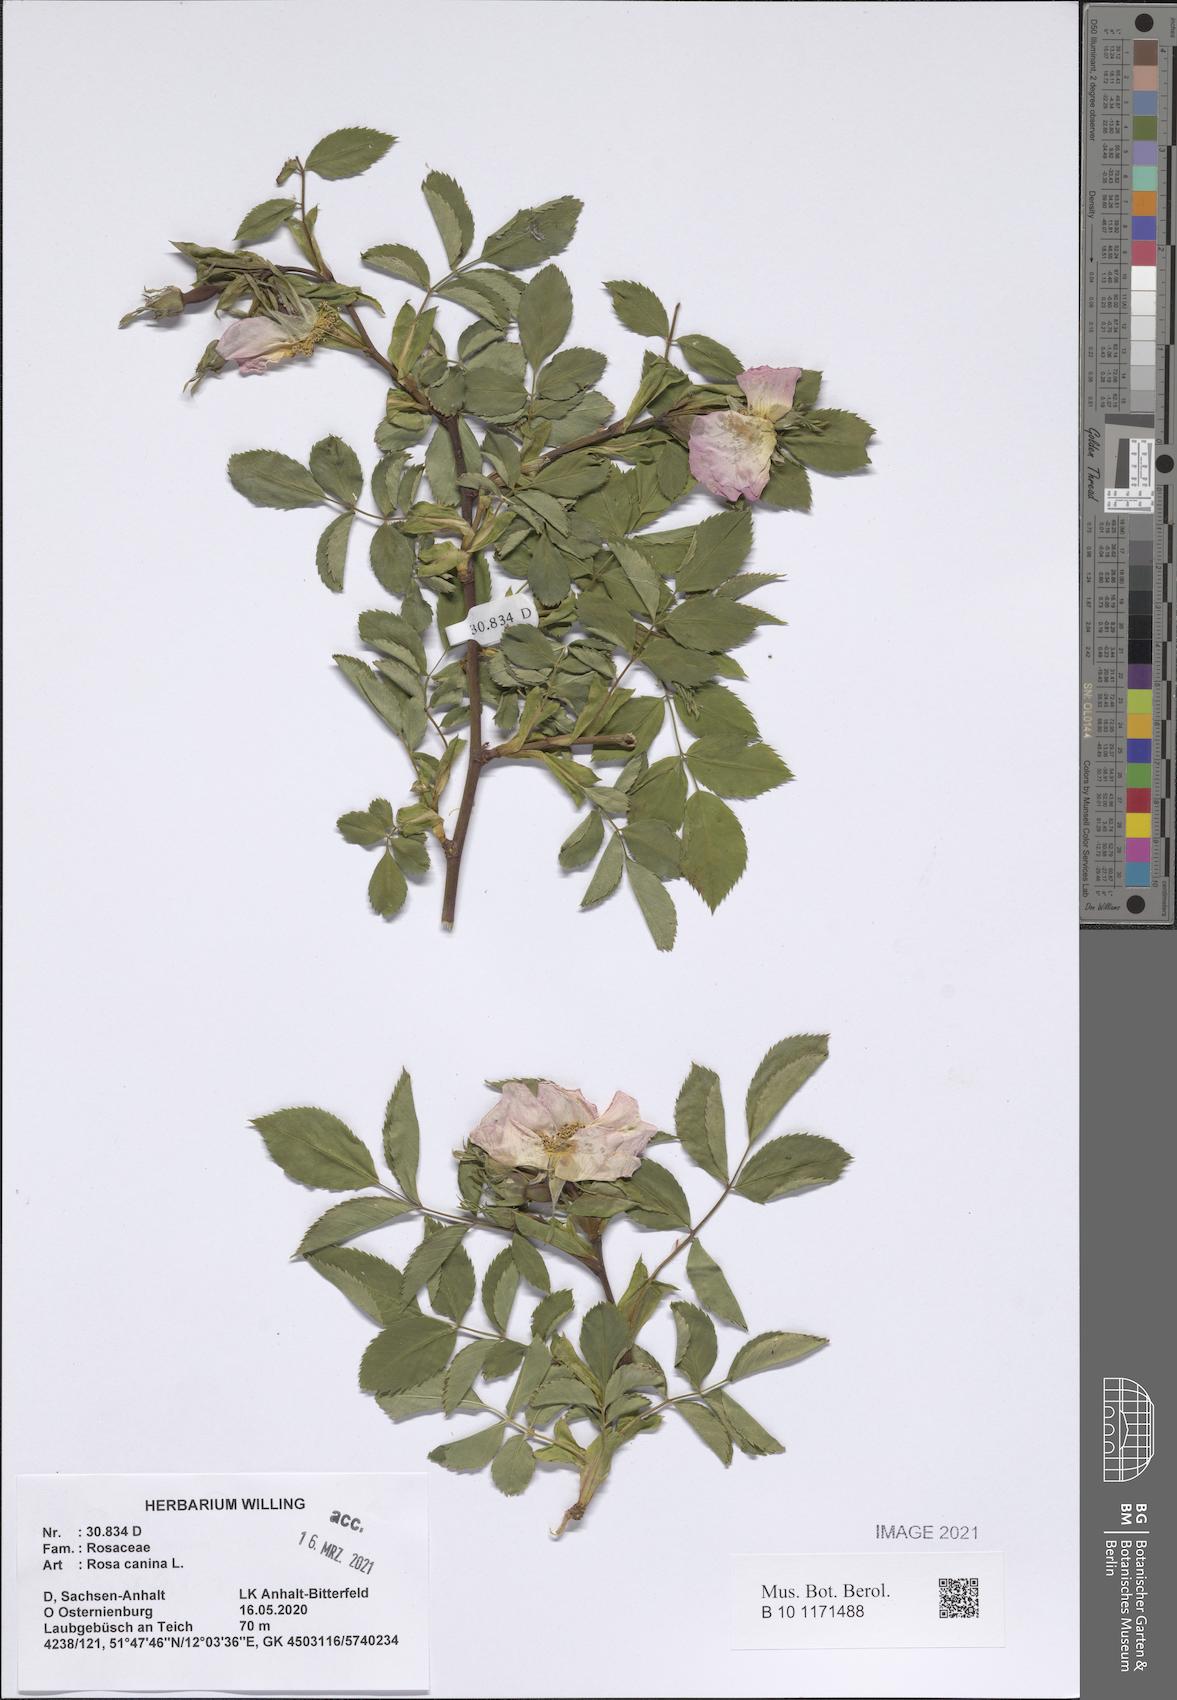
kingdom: Plantae
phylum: Tracheophyta
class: Magnoliopsida
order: Rosales
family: Rosaceae
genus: Rosa
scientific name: Rosa canina
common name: Dog rose
